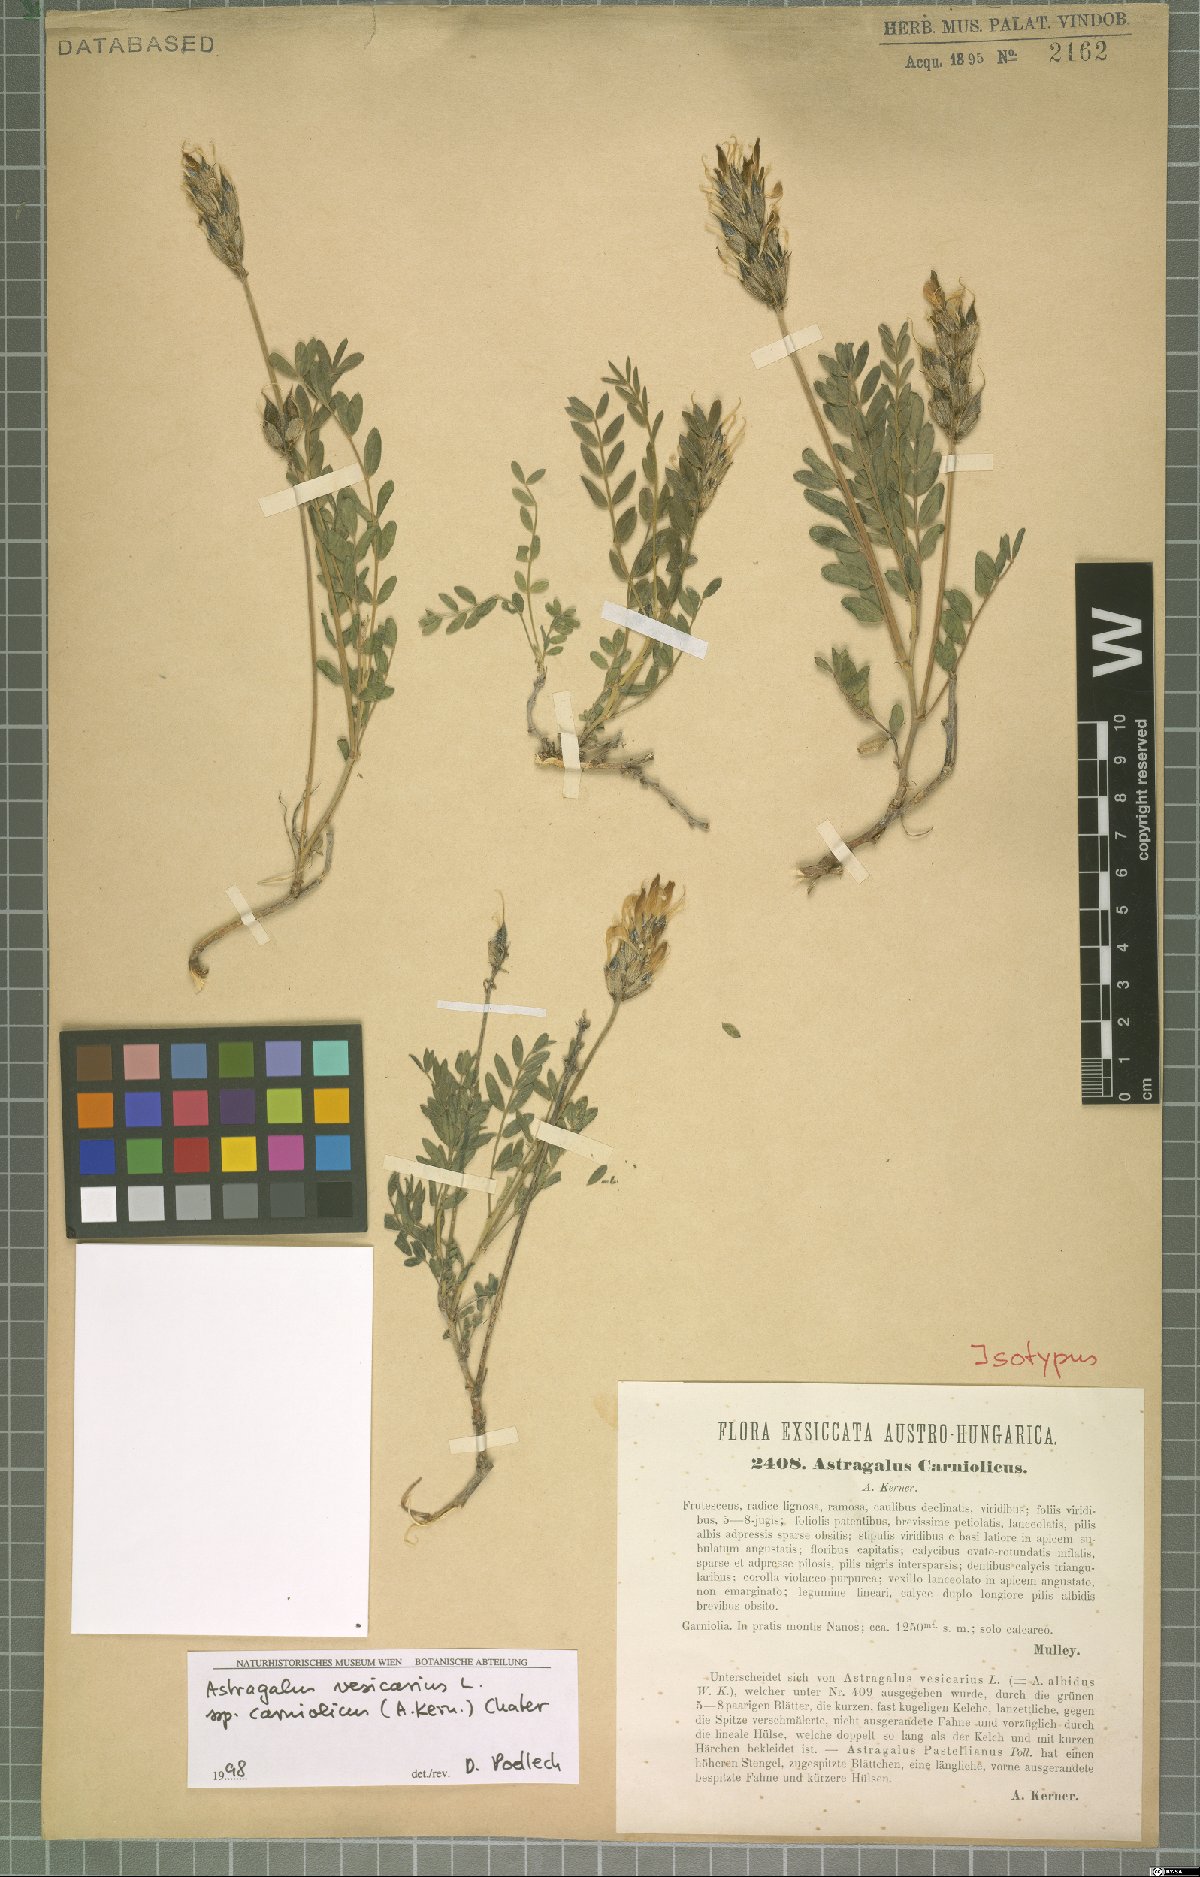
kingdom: Plantae
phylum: Tracheophyta
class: Magnoliopsida
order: Fabales
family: Fabaceae
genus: Astragalus
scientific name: Astragalus vesicarius
